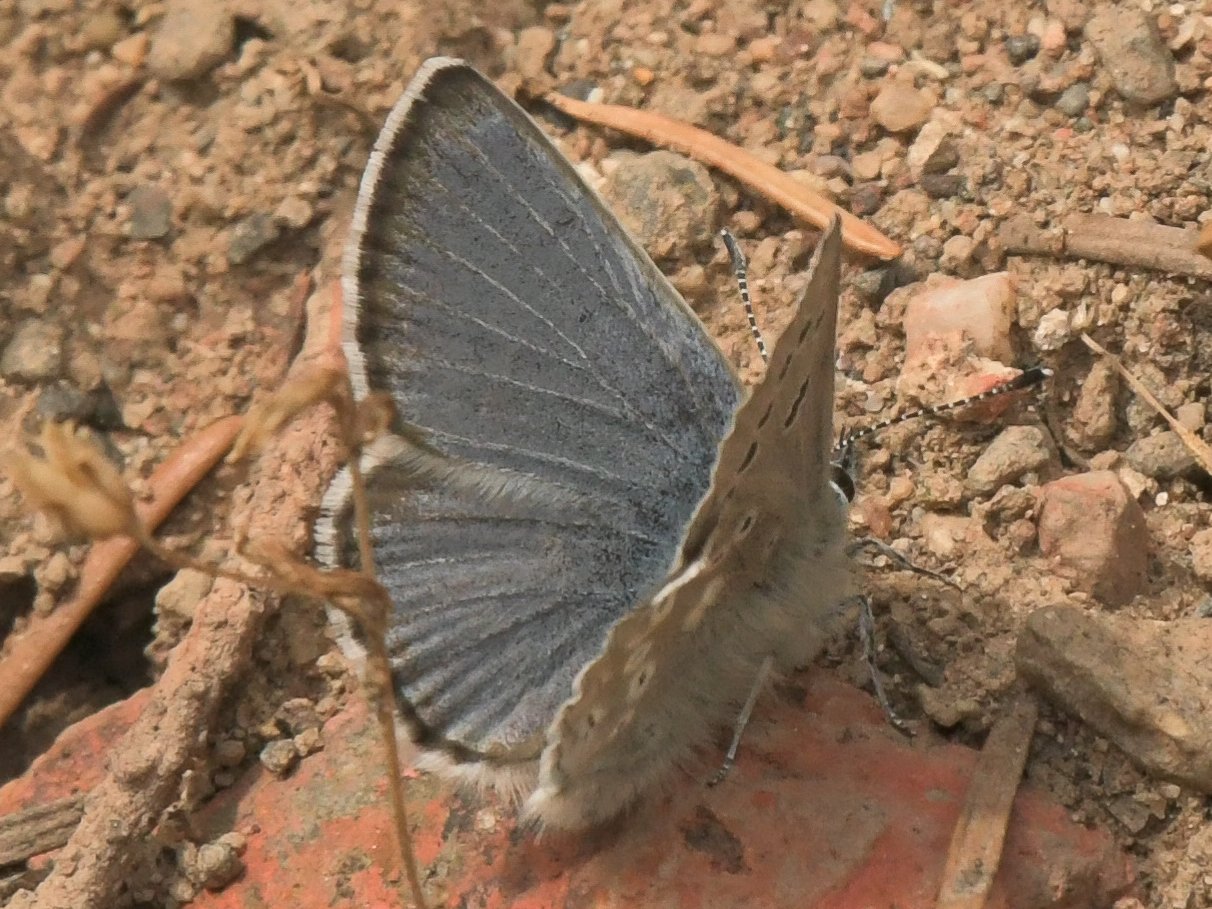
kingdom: Animalia
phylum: Arthropoda
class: Insecta
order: Lepidoptera
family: Lycaenidae
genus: Icaricia
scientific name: Icaricia icarioides
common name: Boisduval's Blue
